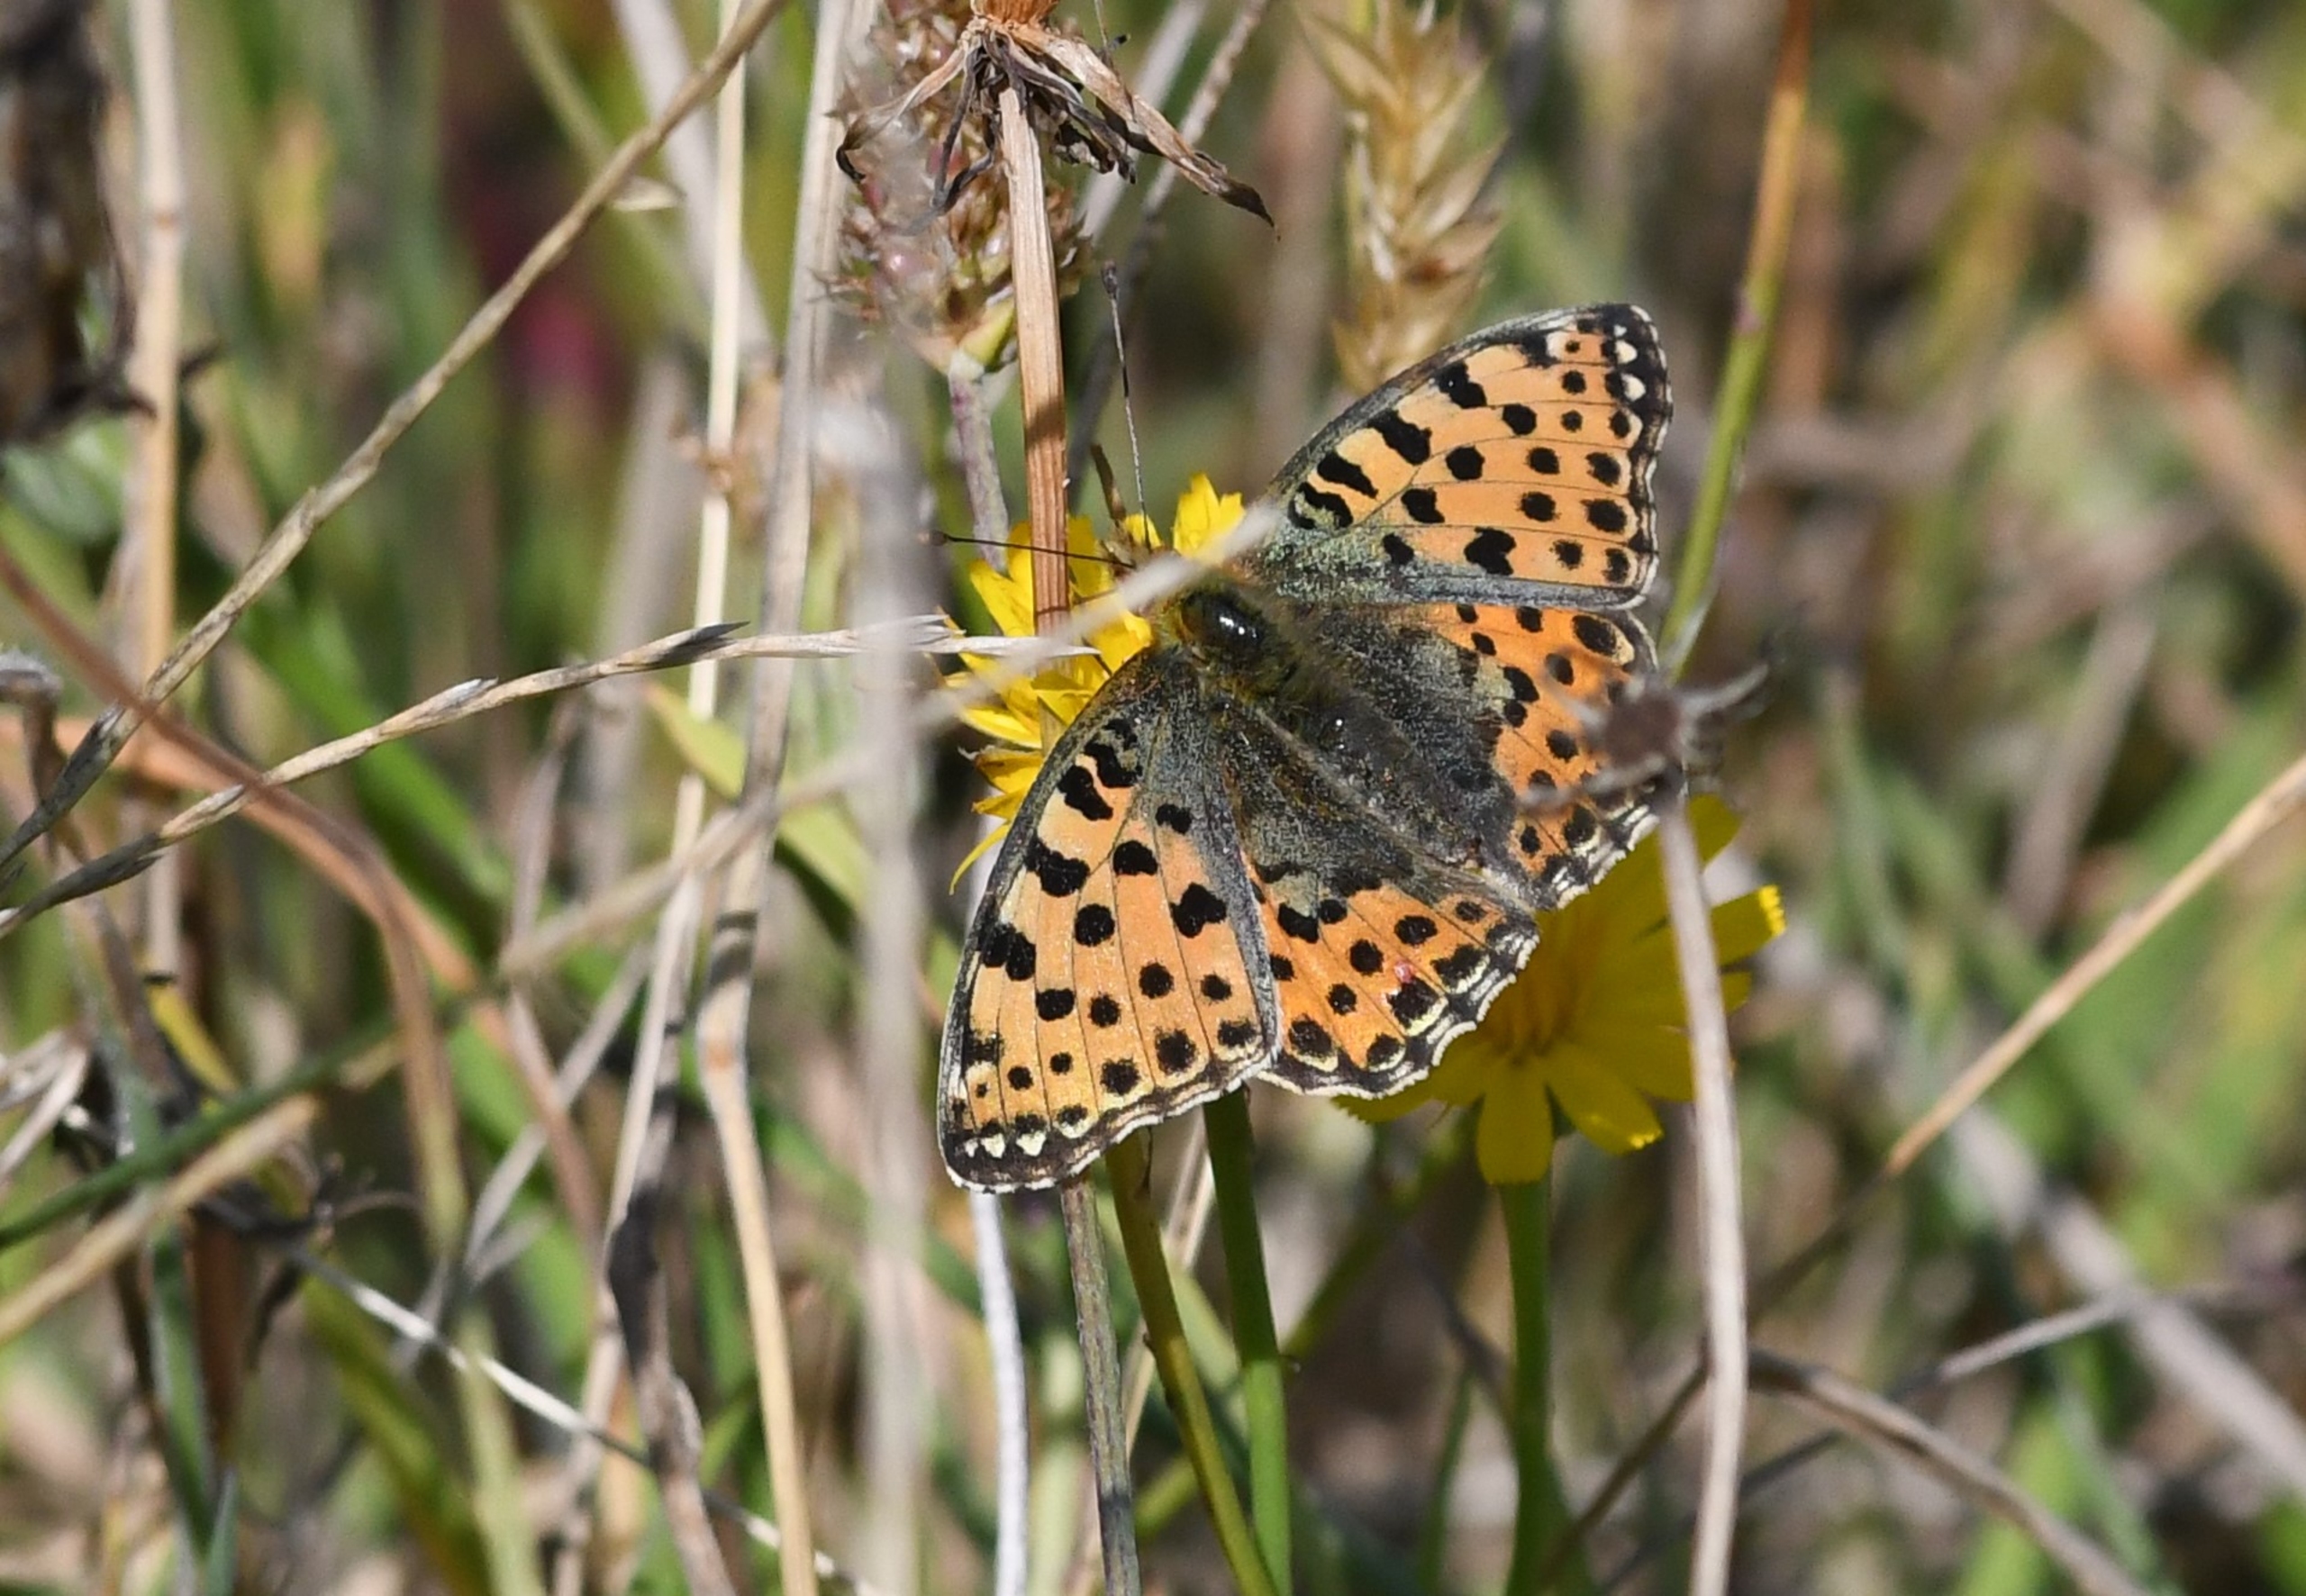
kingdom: Animalia
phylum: Arthropoda
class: Insecta
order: Lepidoptera
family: Nymphalidae
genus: Issoria
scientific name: Issoria lathonia
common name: Storplettet perlemorsommerfugl
